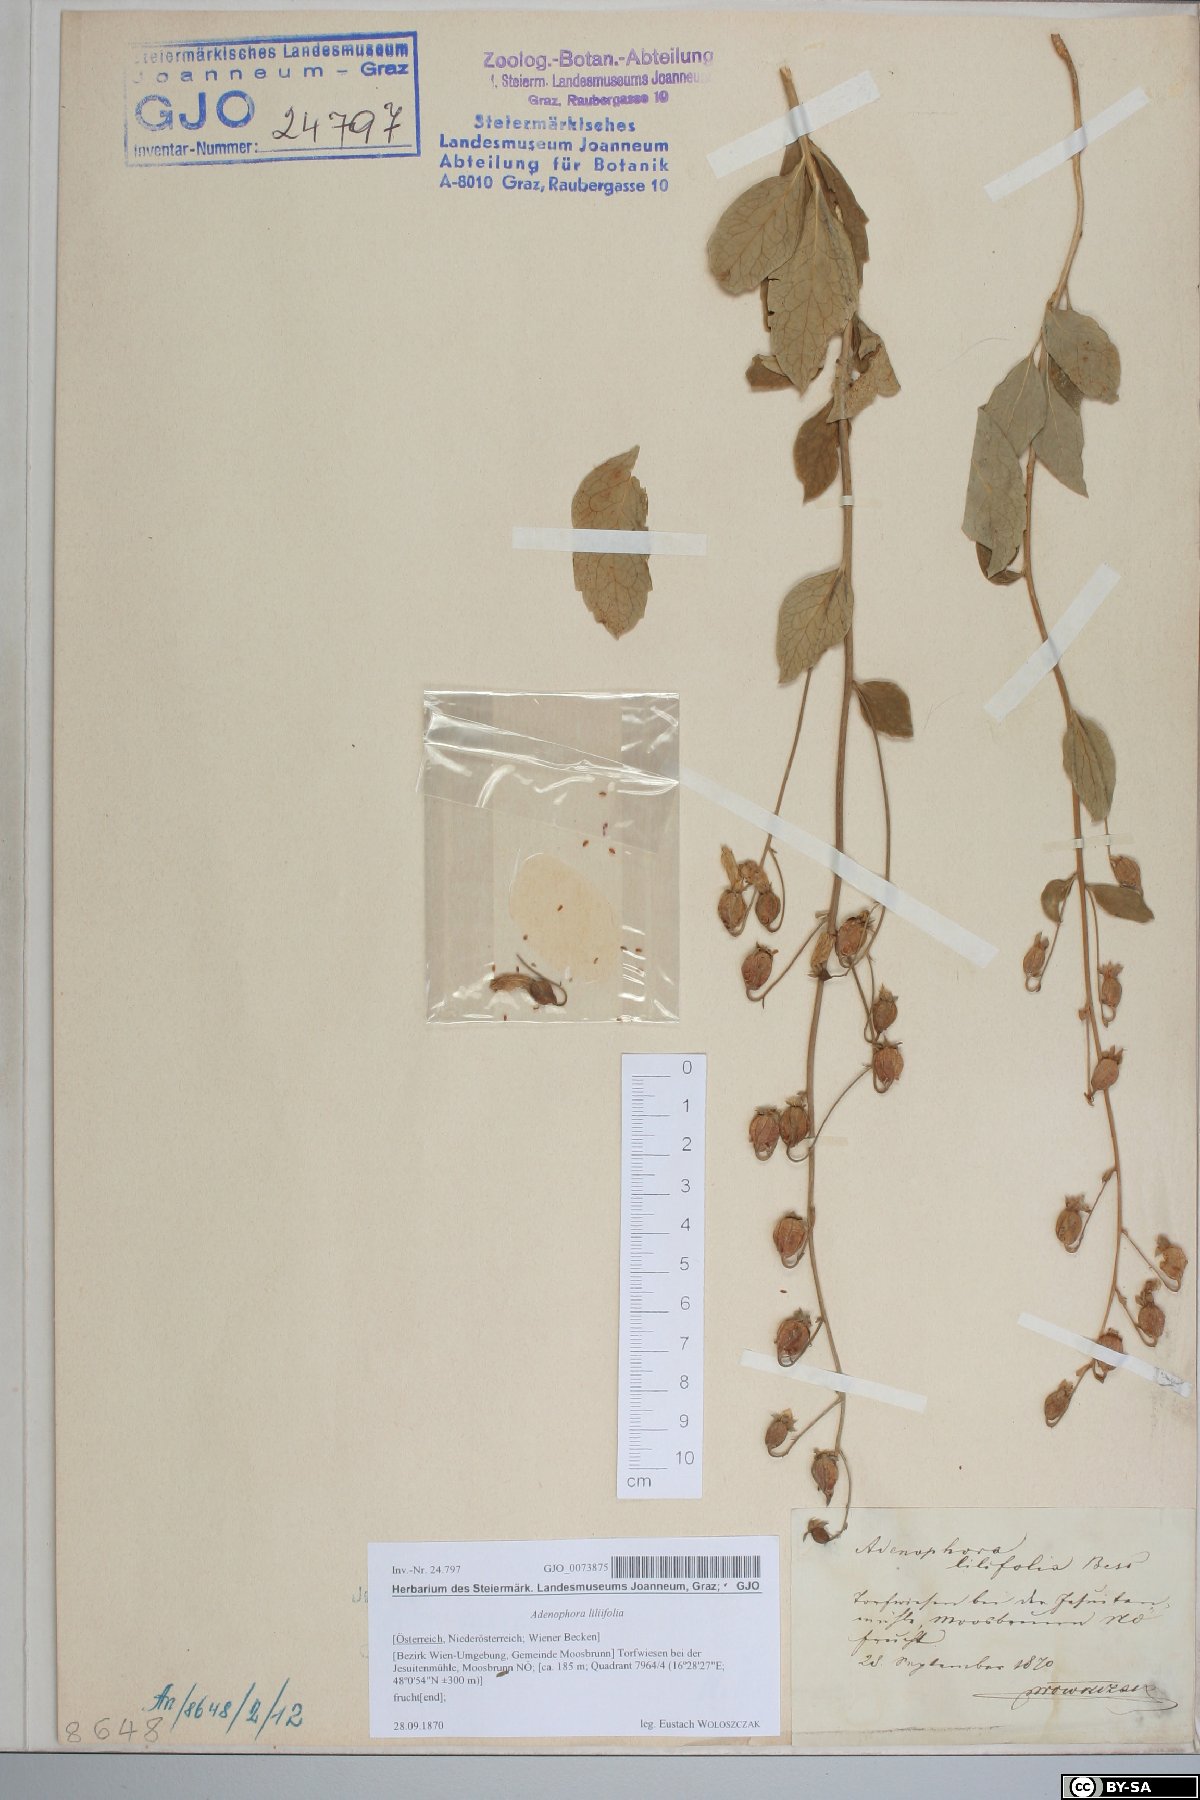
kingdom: Plantae
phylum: Tracheophyta
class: Magnoliopsida
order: Asterales
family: Campanulaceae
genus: Adenophora
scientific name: Adenophora liliifolia
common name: Lilyleaf ladybells
